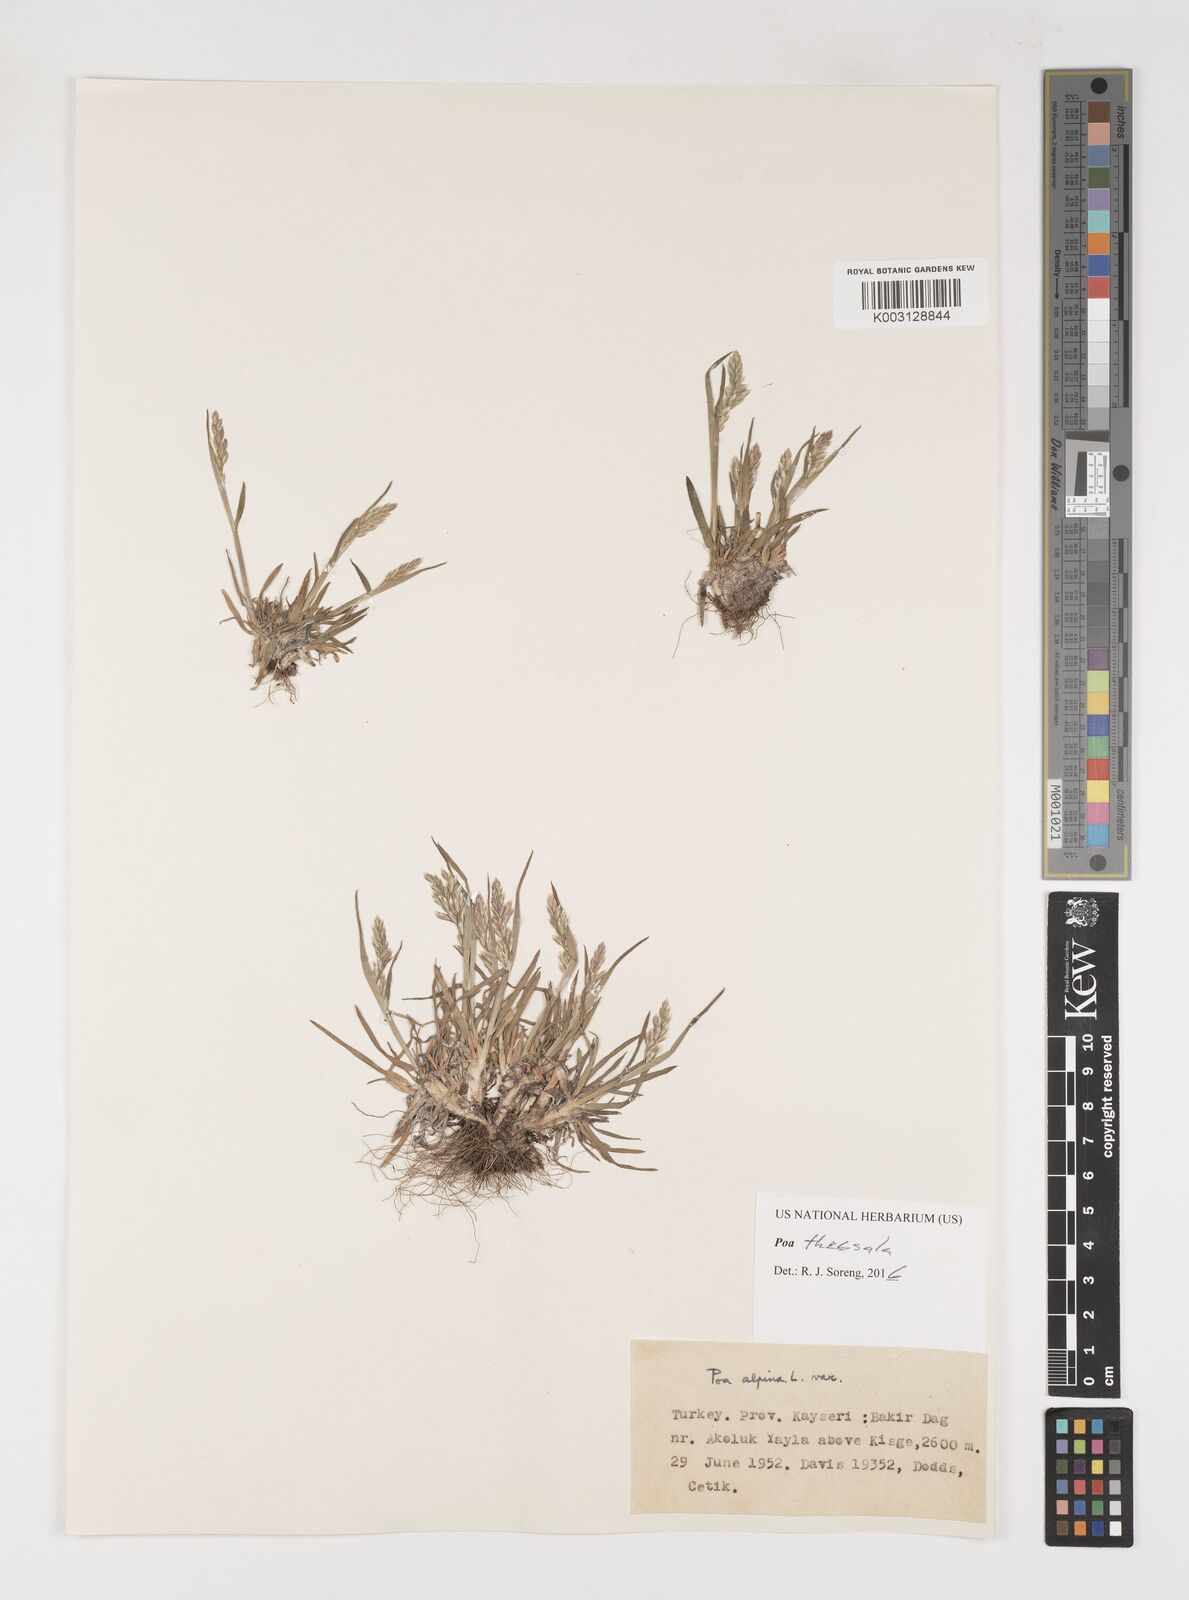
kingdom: Plantae
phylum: Tracheophyta
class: Liliopsida
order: Poales
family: Poaceae
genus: Poa
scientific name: Poa thessala
